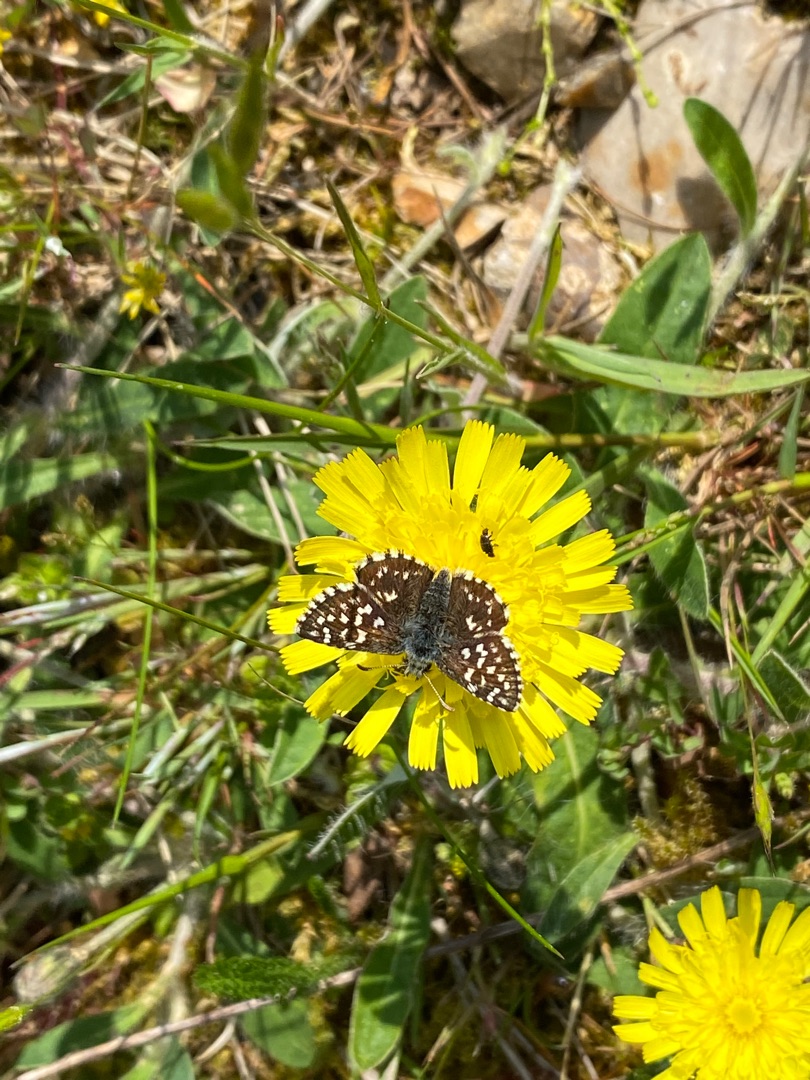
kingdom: Animalia
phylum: Arthropoda
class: Insecta
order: Lepidoptera
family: Hesperiidae
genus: Pyrgus
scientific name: Pyrgus malvae
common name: Spættet bredpande
